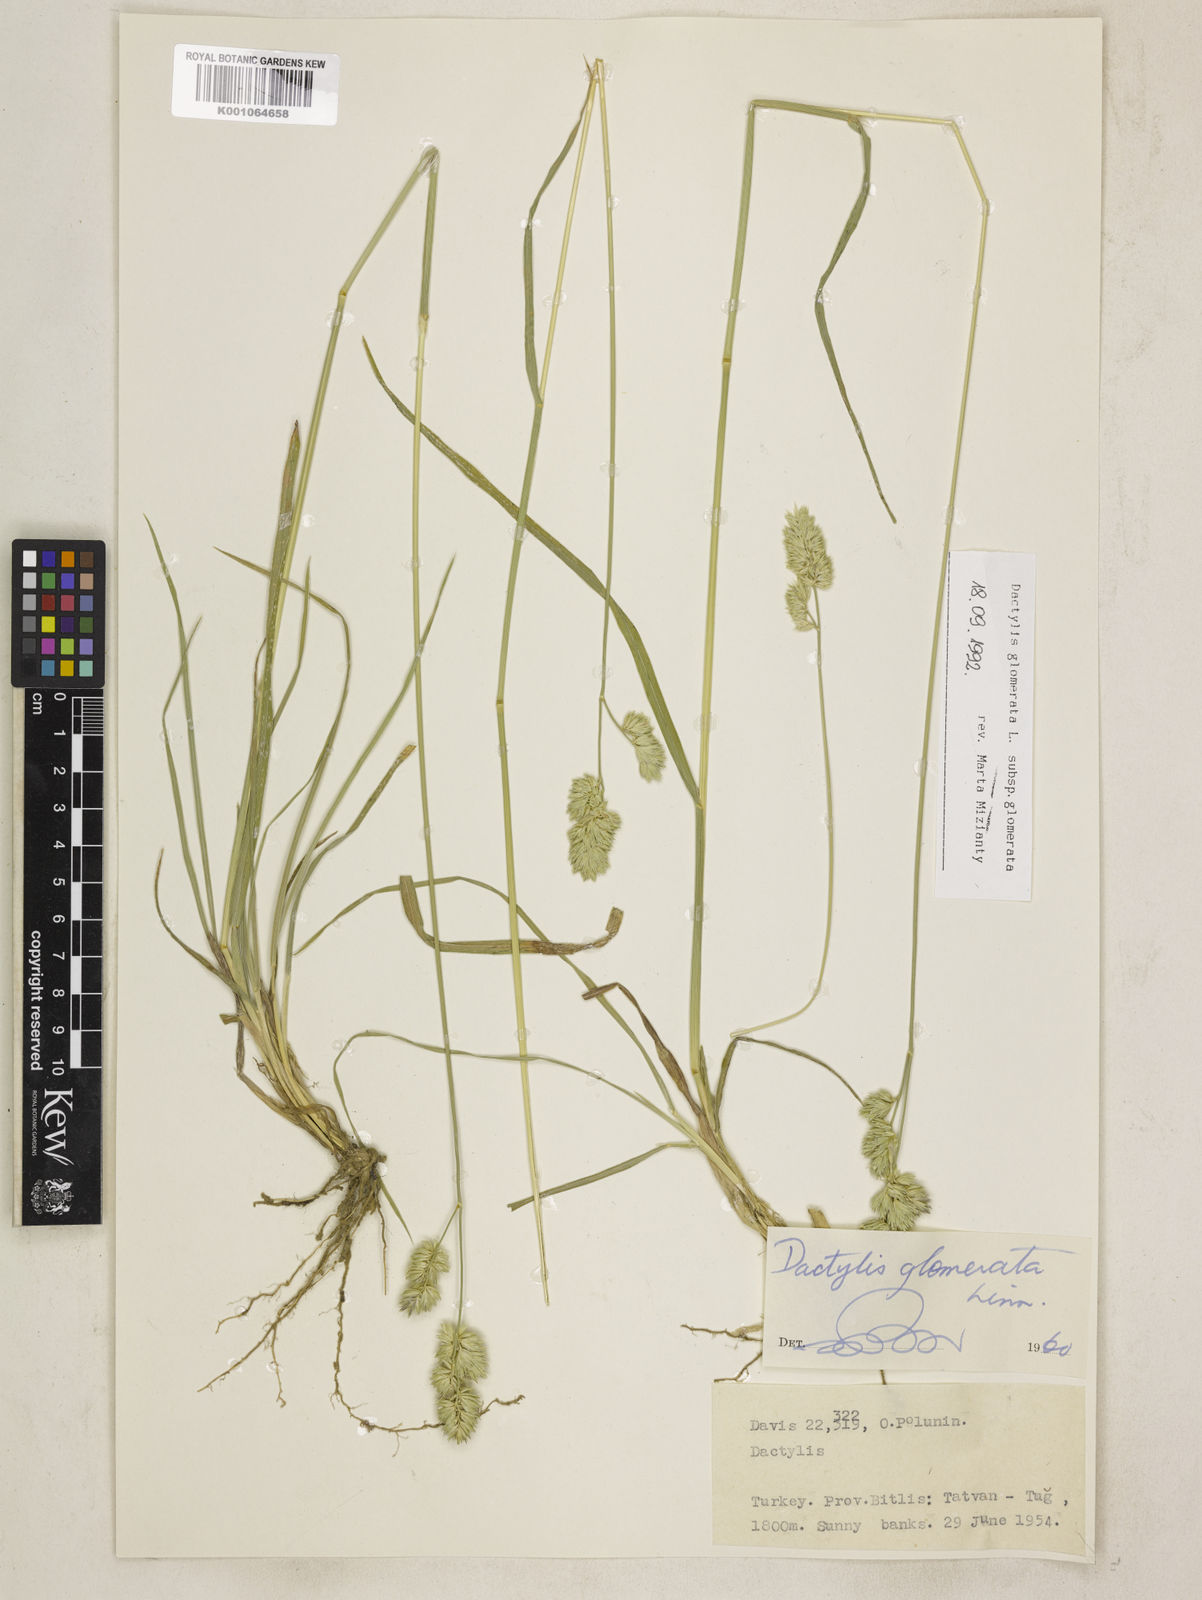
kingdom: Plantae
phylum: Tracheophyta
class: Liliopsida
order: Poales
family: Poaceae
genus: Dactylis
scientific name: Dactylis glomerata
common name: Orchardgrass
